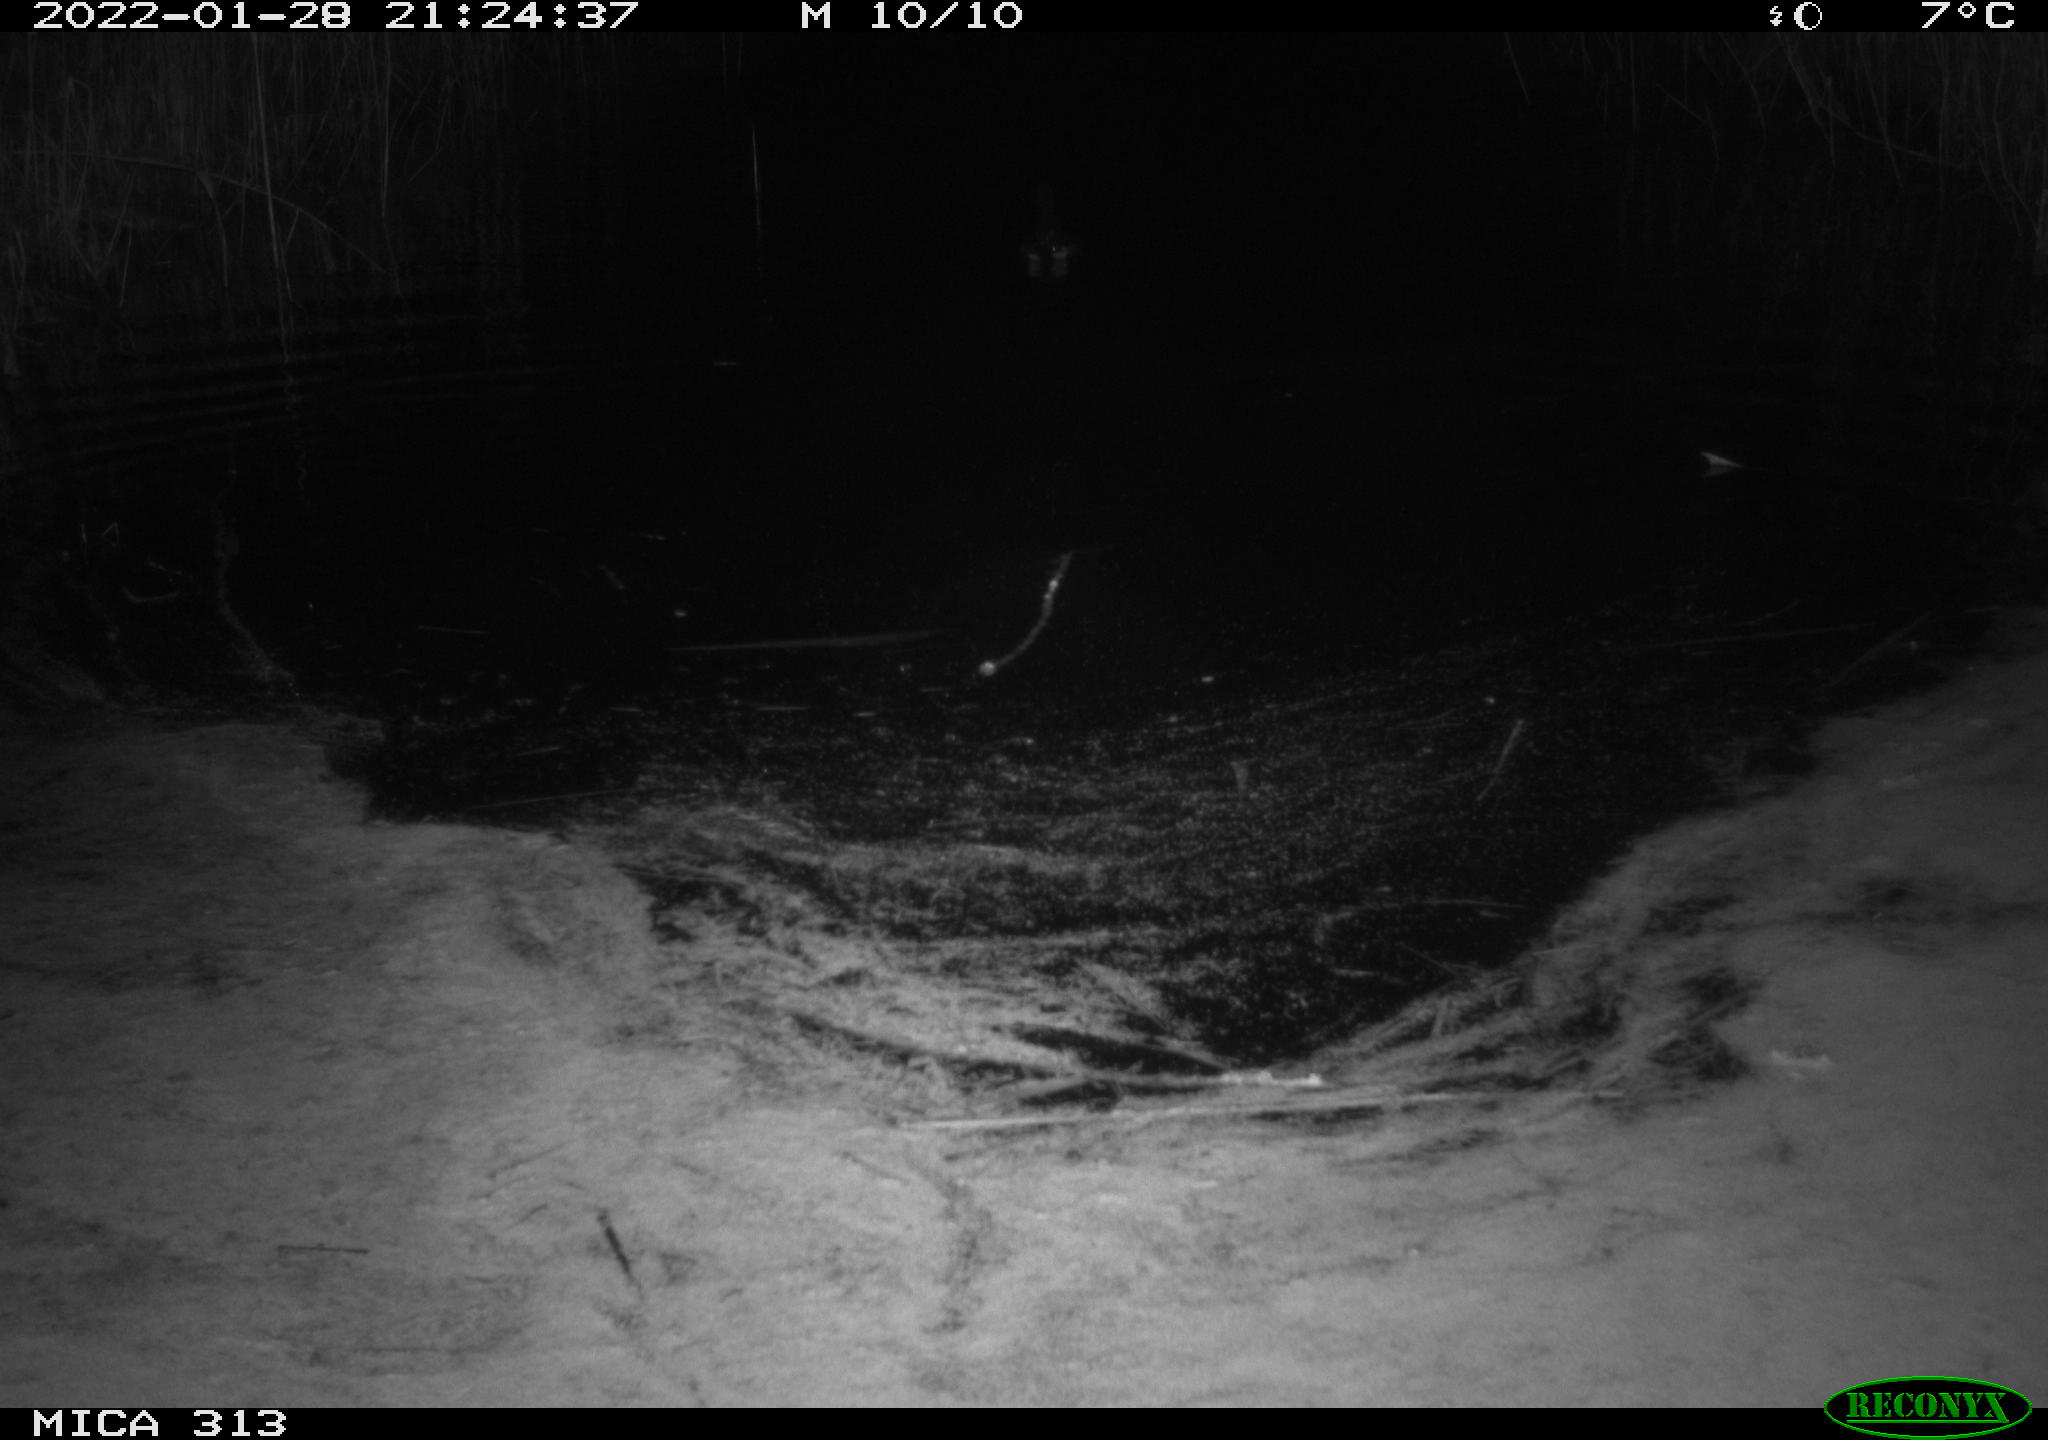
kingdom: Animalia
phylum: Chordata
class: Aves
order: Gruiformes
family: Rallidae
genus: Gallinula
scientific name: Gallinula chloropus
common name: Common moorhen
